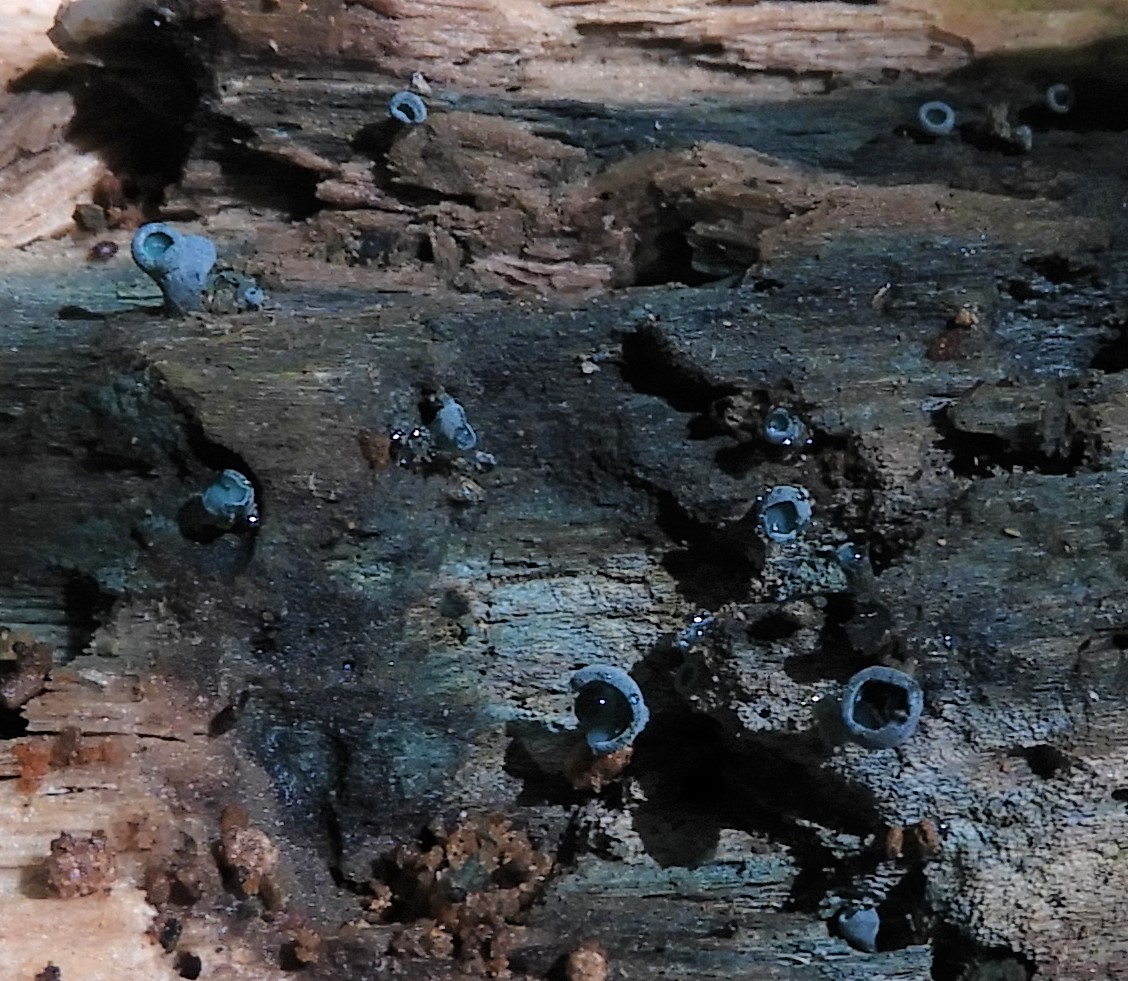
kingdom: Fungi
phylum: Ascomycota
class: Leotiomycetes
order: Helotiales
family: Chlorociboriaceae
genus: Chlorociboria
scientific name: Chlorociboria aeruginascens
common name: almindelig grønskive
